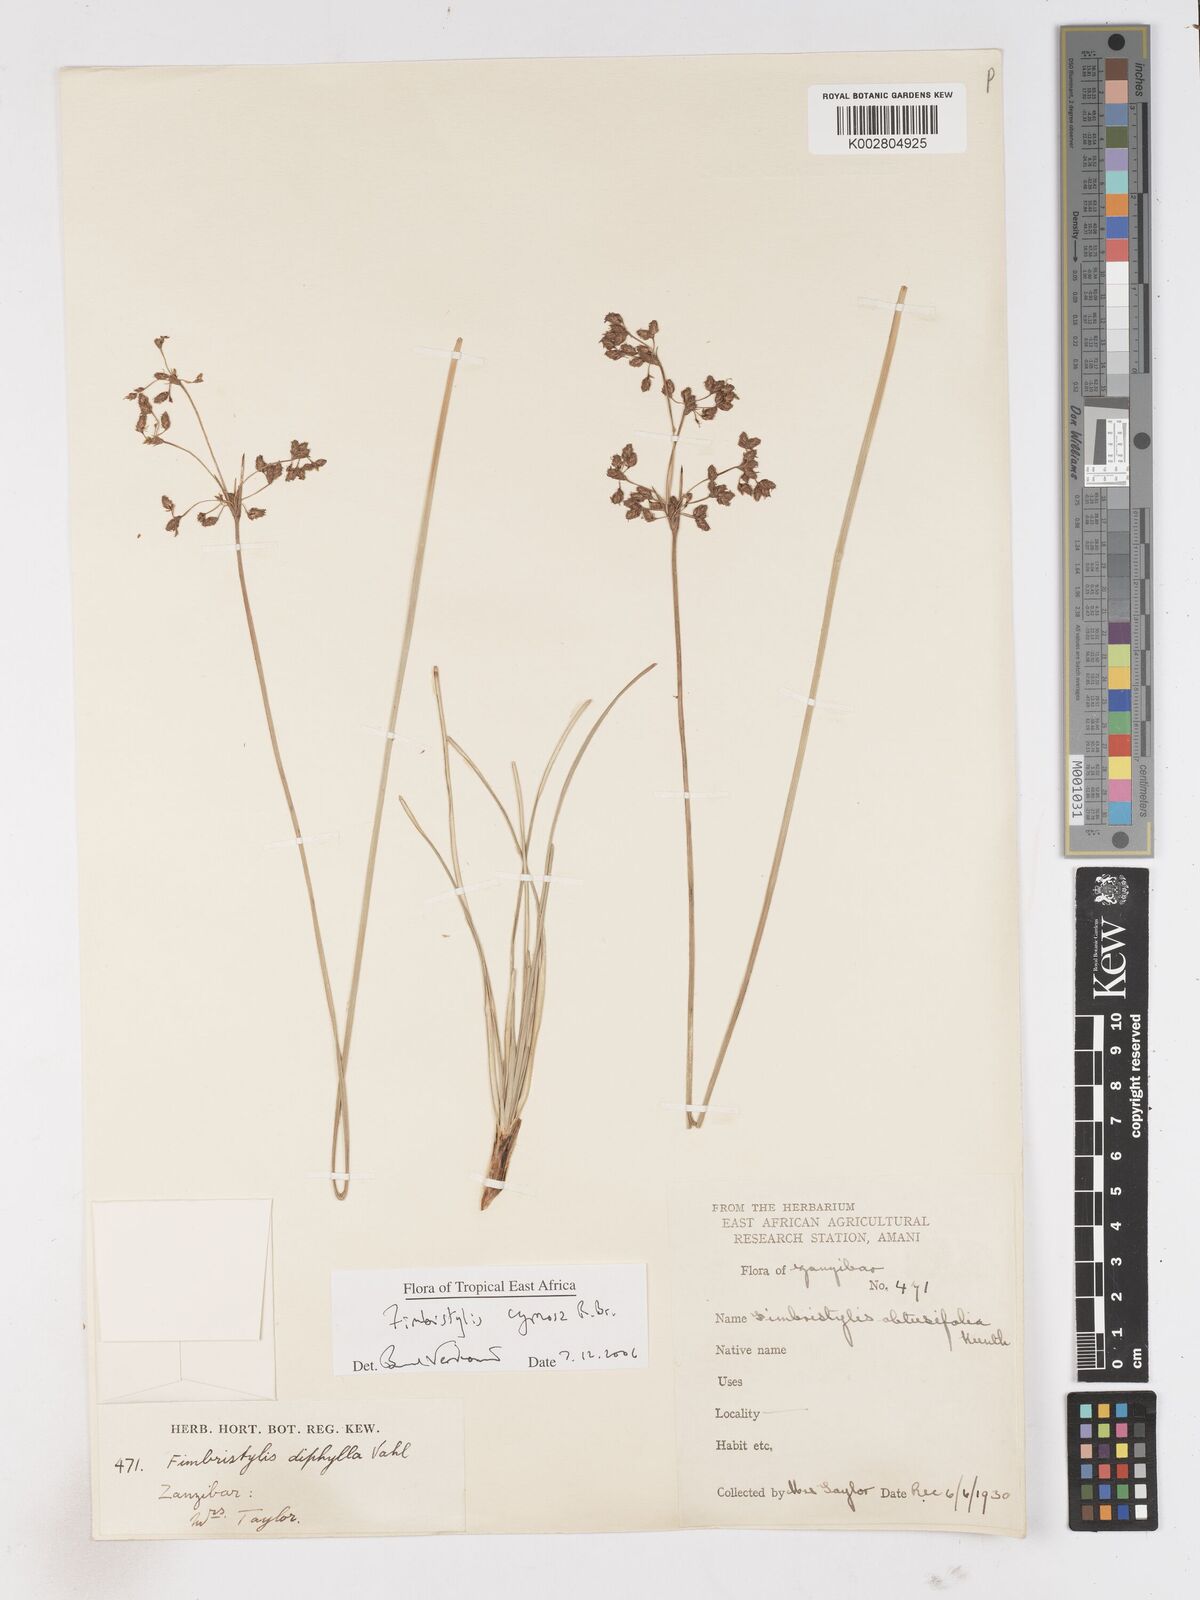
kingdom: Plantae
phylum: Tracheophyta
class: Liliopsida
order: Poales
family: Cyperaceae
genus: Fimbristylis
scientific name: Fimbristylis cymosa
